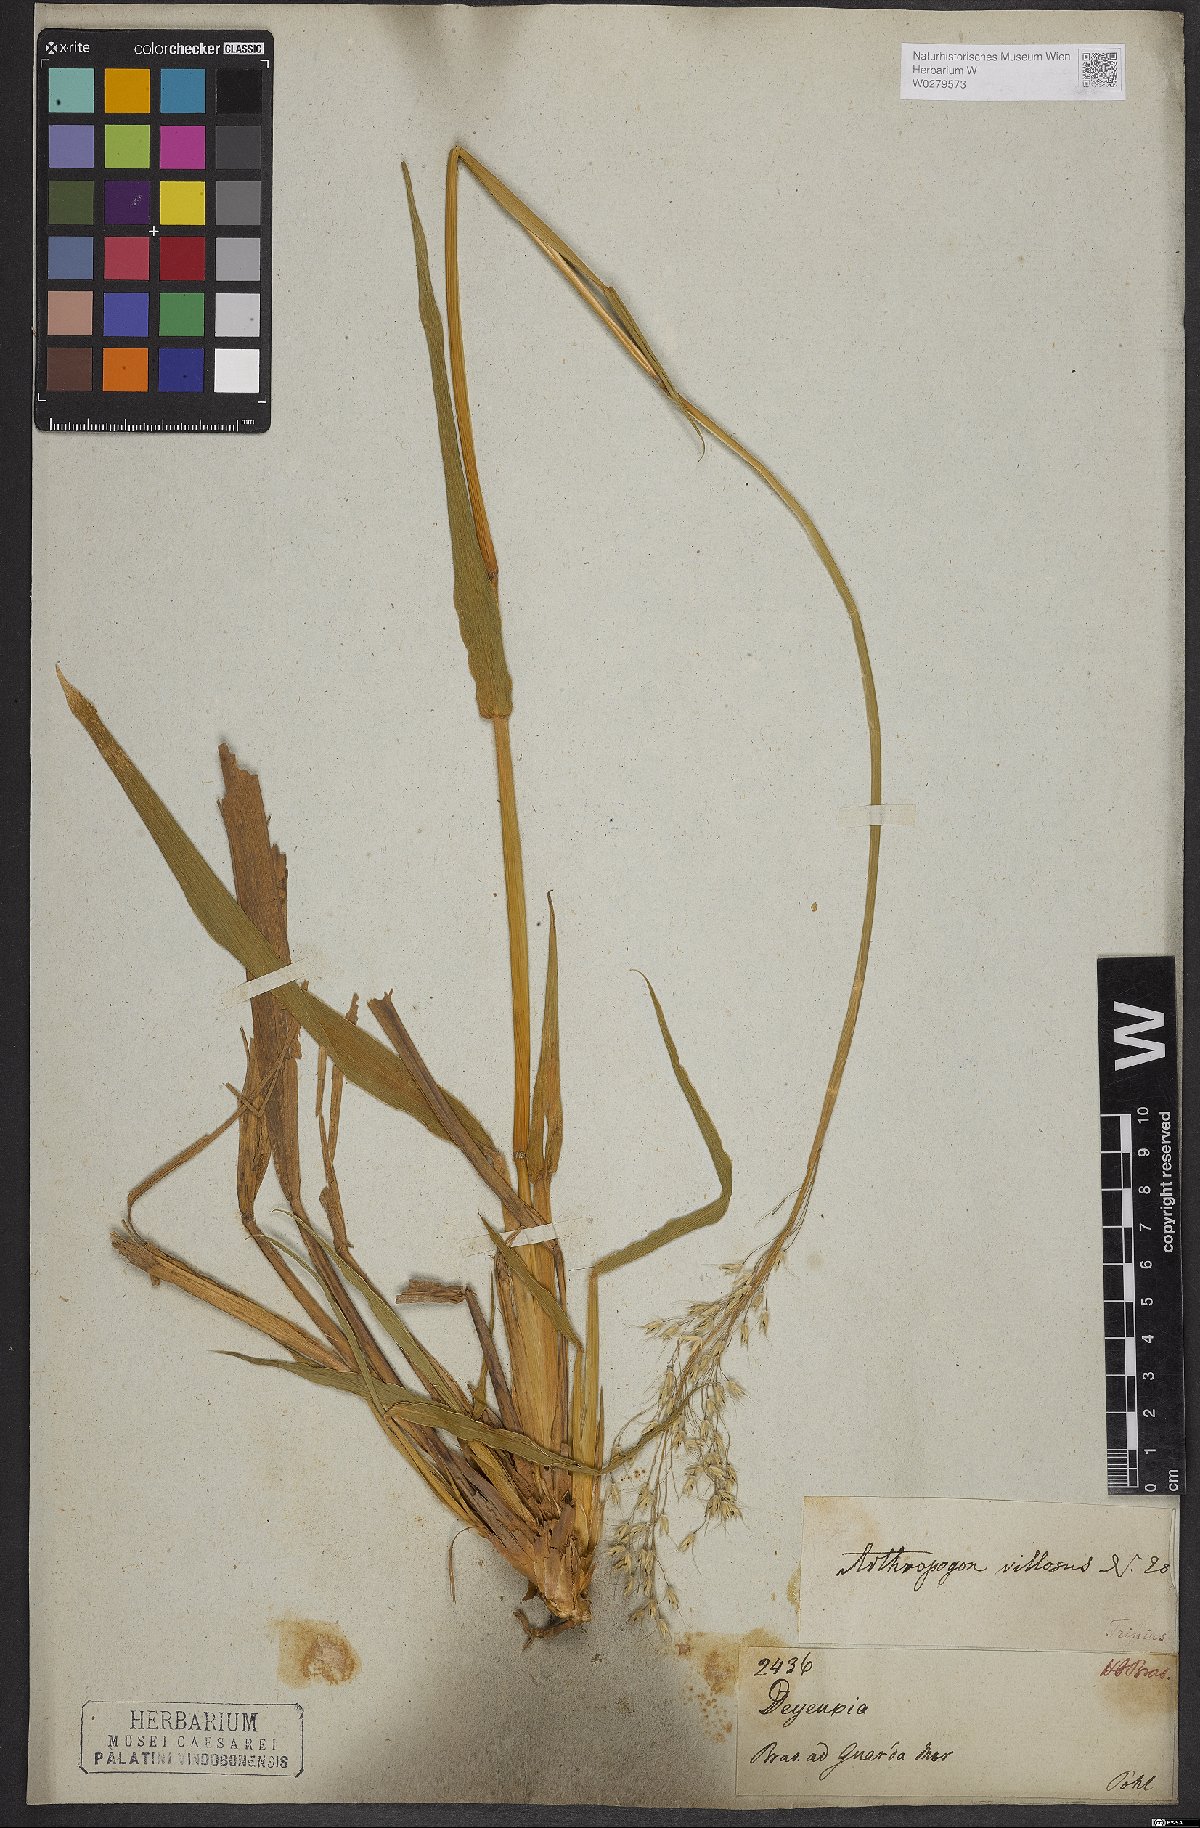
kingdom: Plantae
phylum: Tracheophyta
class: Liliopsida
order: Poales
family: Poaceae
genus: Arthropogon
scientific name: Arthropogon villosus
